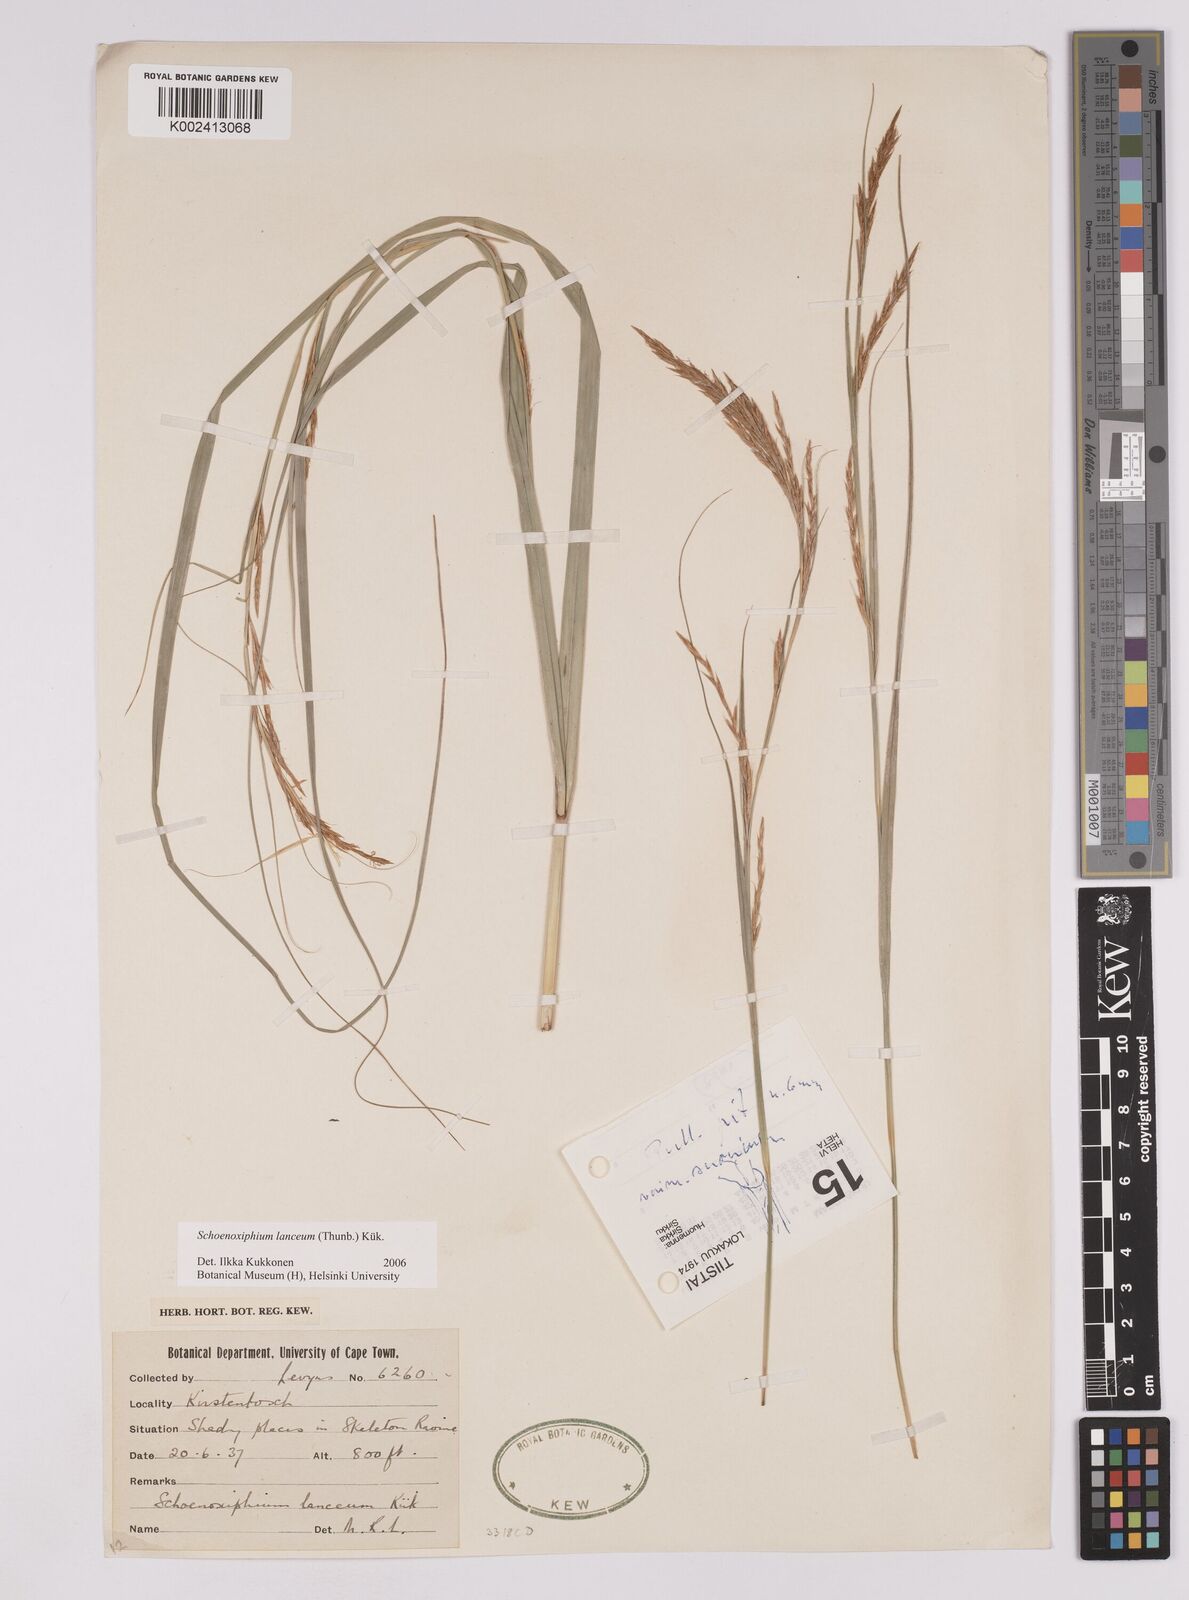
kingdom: Plantae
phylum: Tracheophyta
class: Liliopsida
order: Poales
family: Cyperaceae
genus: Carex
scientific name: Carex lancea
